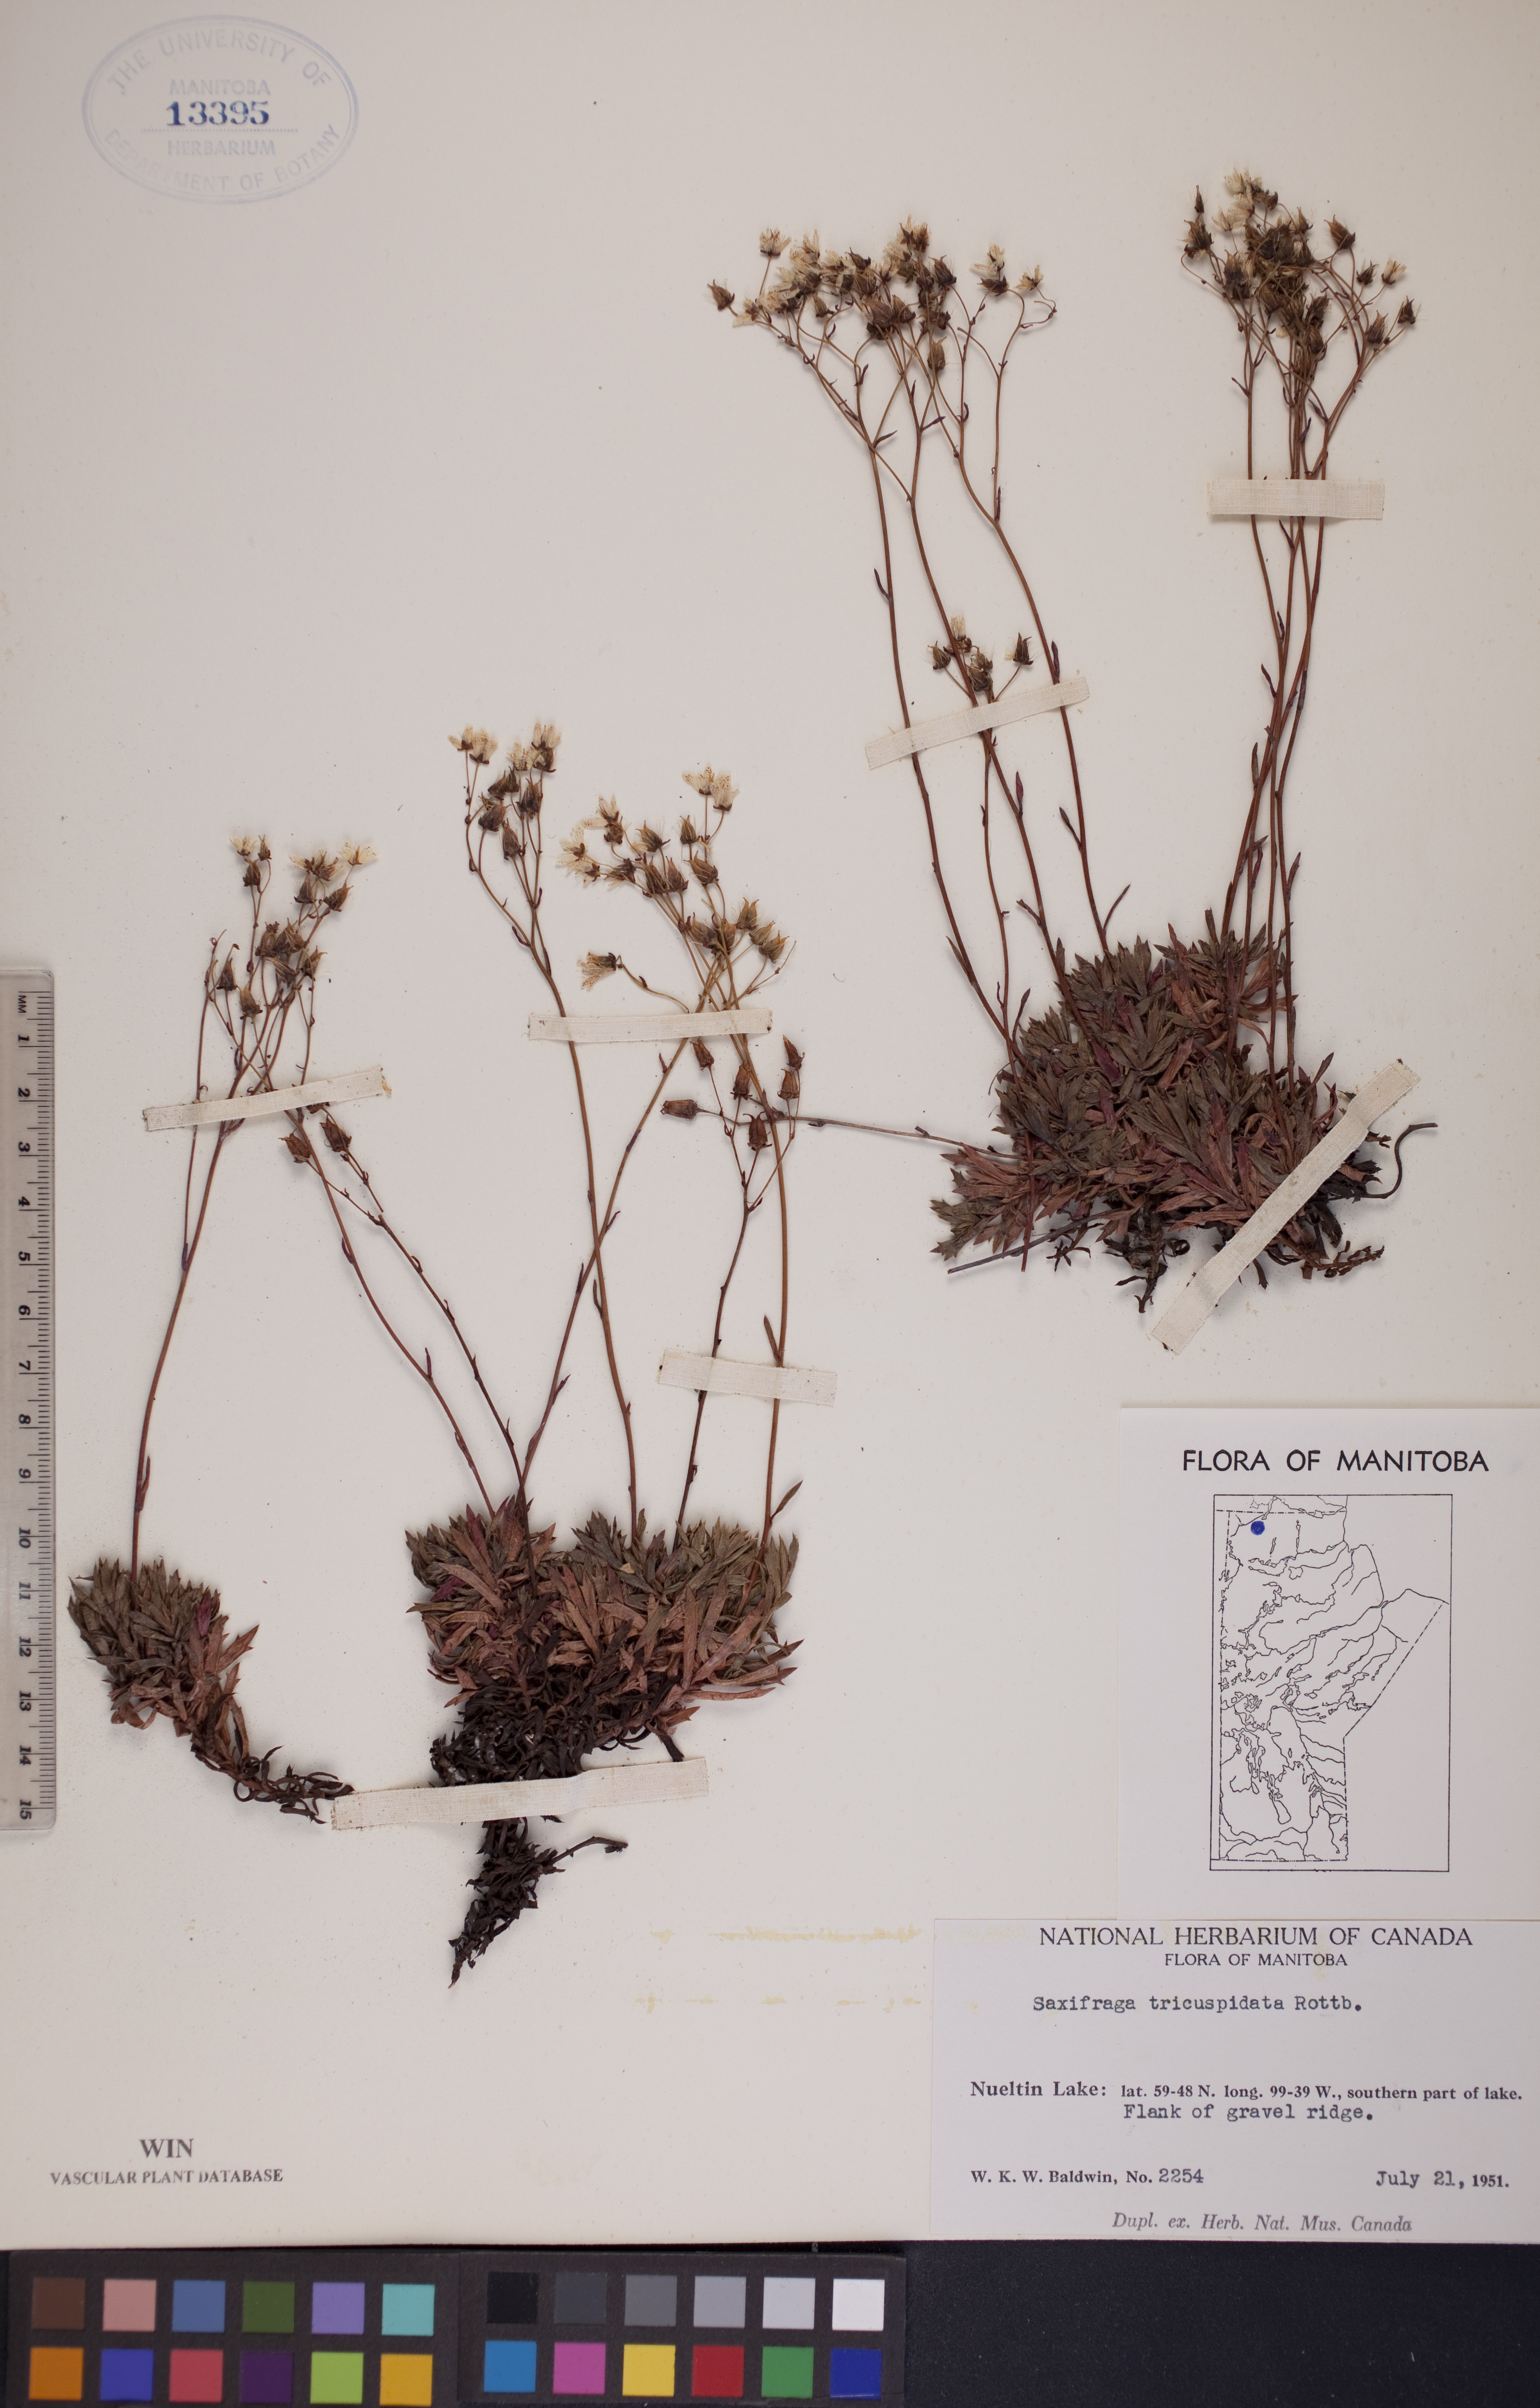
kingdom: Plantae
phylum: Tracheophyta
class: Magnoliopsida
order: Saxifragales
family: Saxifragaceae
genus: Saxifraga
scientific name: Saxifraga tricuspidata
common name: Prickly saxifrage
